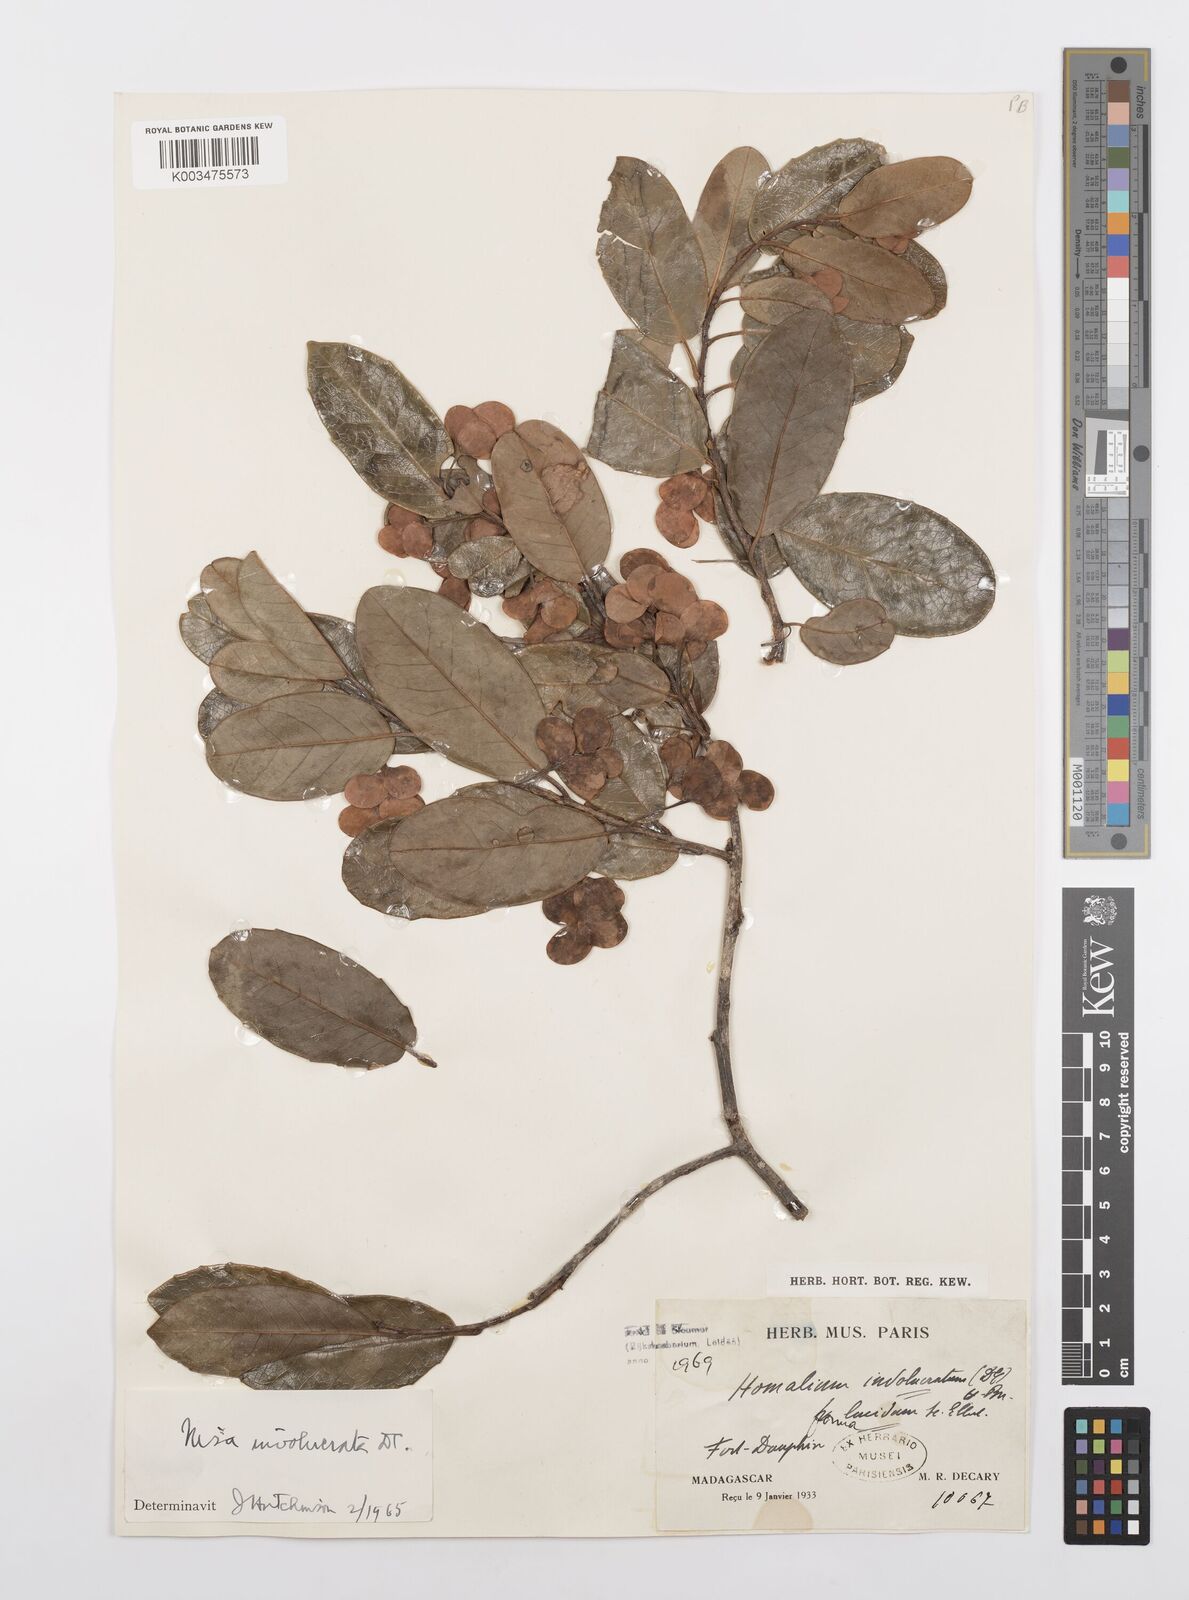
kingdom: Plantae
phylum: Tracheophyta
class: Magnoliopsida
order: Malpighiales
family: Salicaceae
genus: Homalium
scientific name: Homalium involucratum
